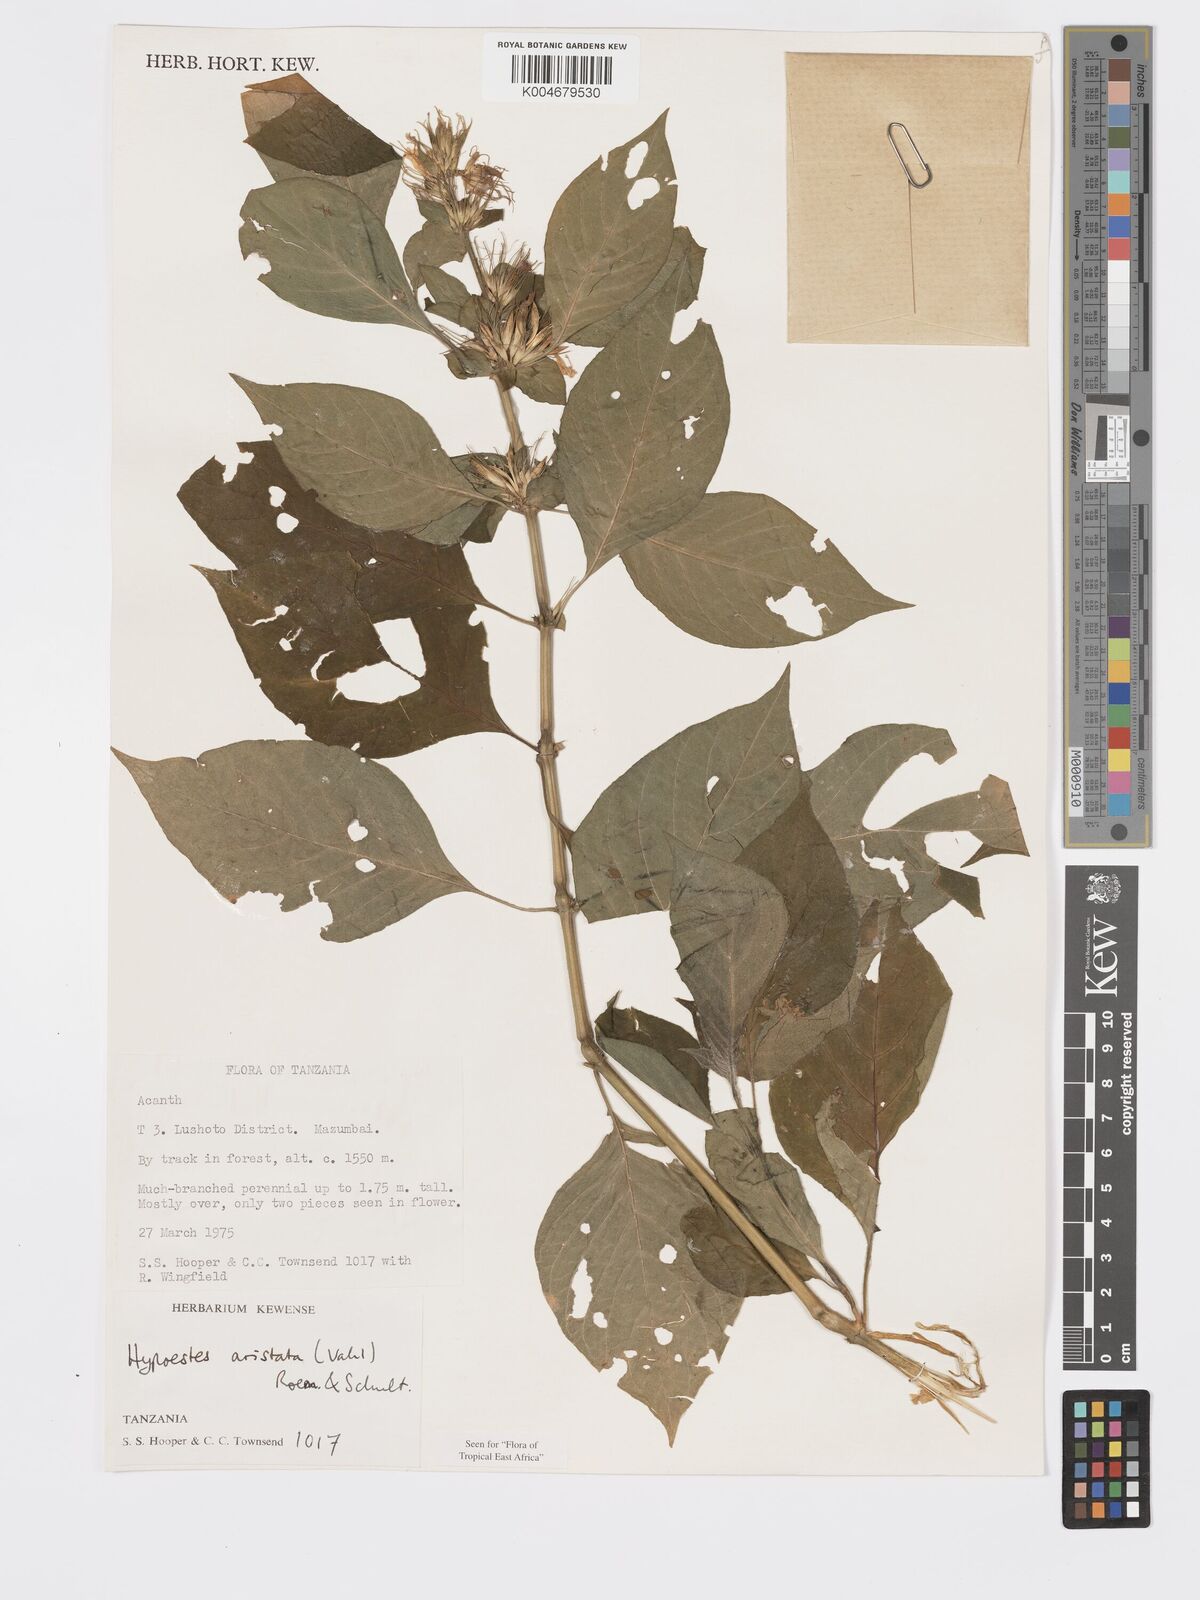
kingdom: Plantae
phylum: Tracheophyta
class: Magnoliopsida
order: Lamiales
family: Acanthaceae
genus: Hypoestes
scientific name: Hypoestes aristata
